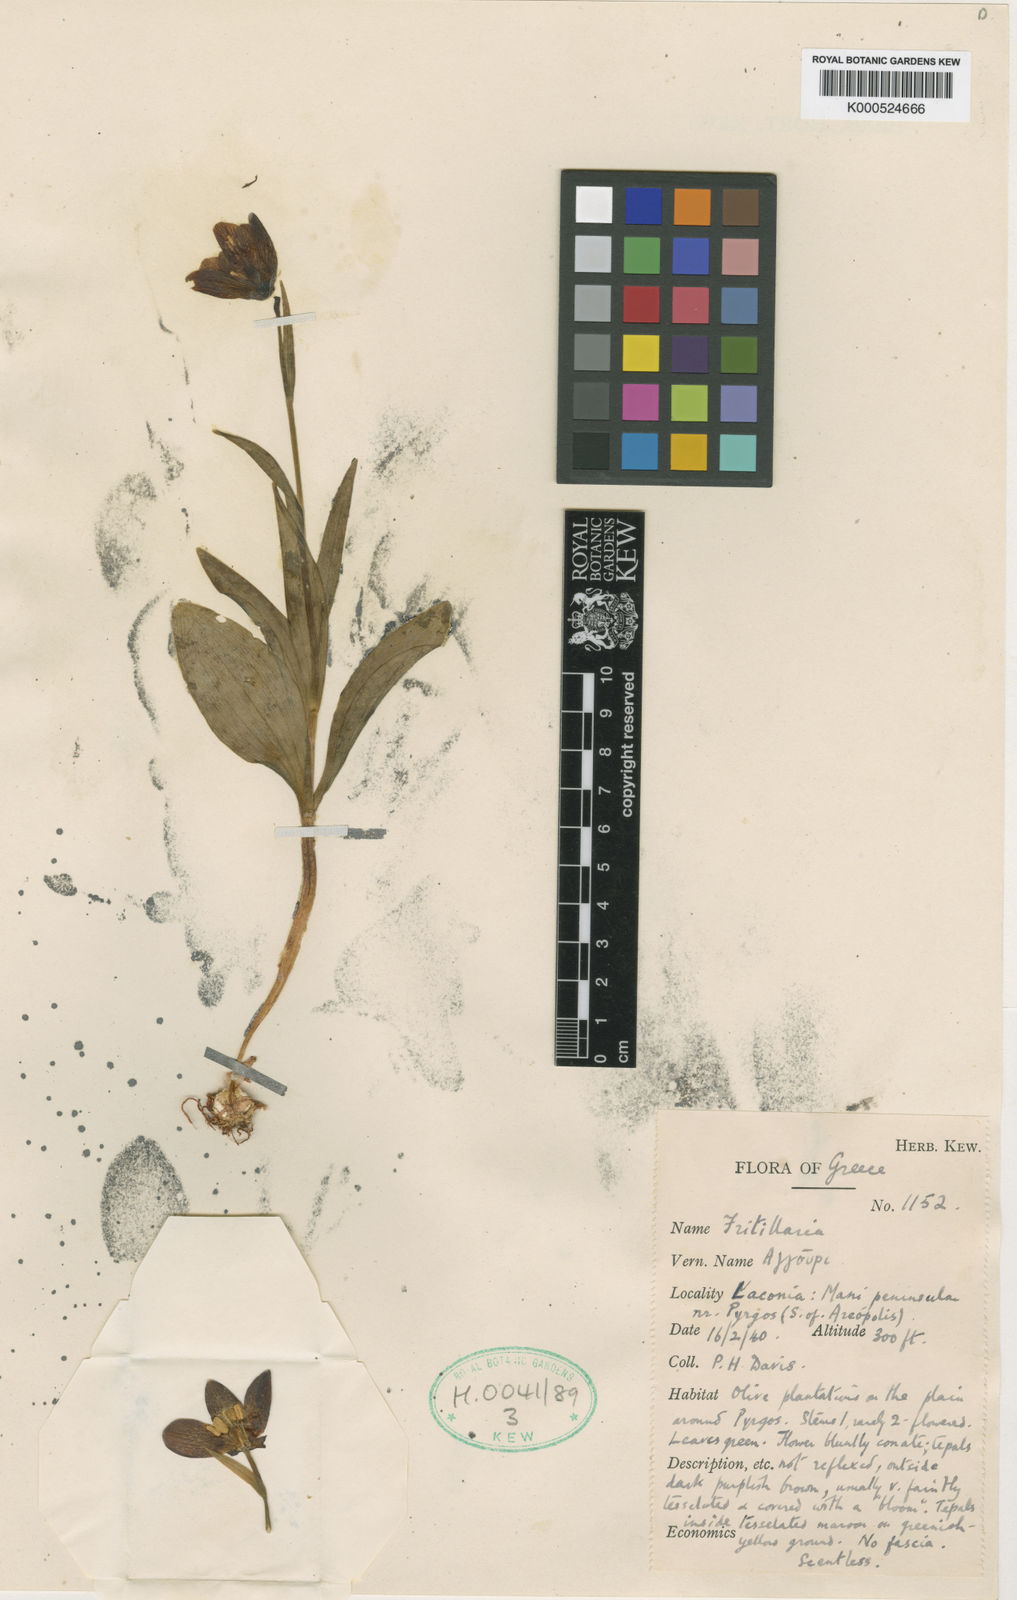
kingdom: Plantae
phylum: Tracheophyta
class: Liliopsida
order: Liliales
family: Liliaceae
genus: Fritillaria
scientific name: Fritillaria davisii
